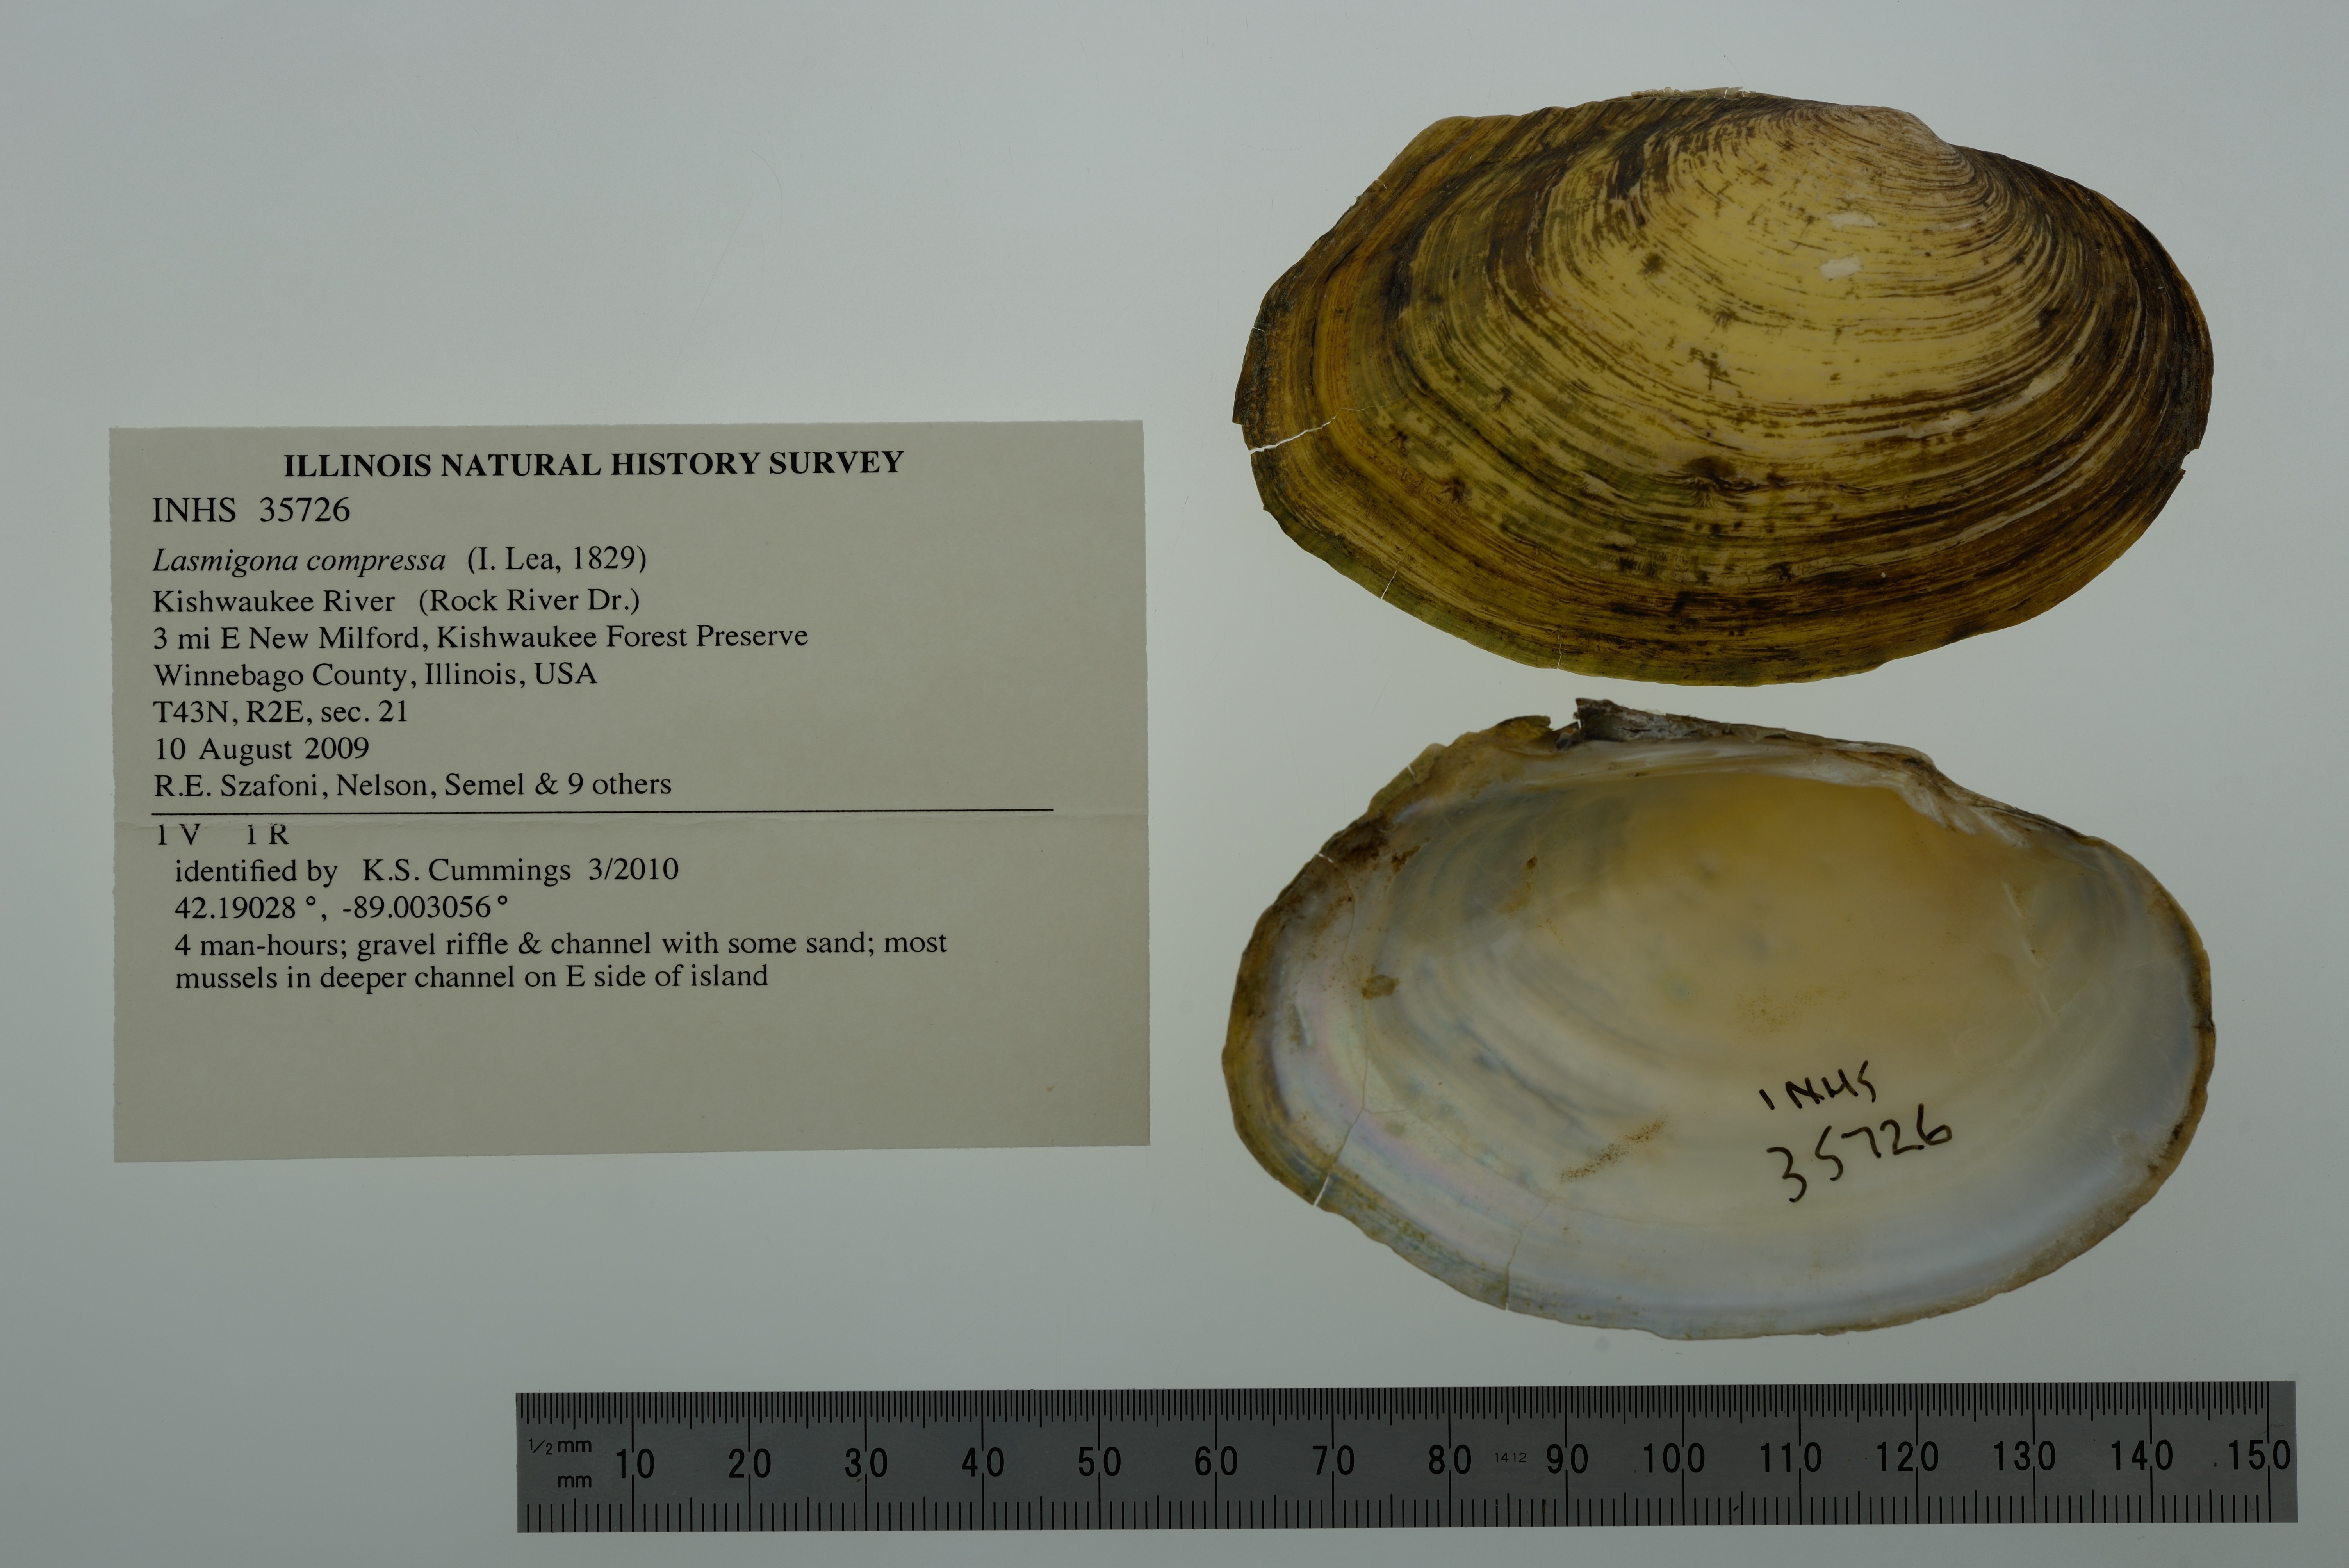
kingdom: Animalia
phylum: Mollusca
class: Bivalvia
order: Unionida
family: Unionidae
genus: Lasmigona
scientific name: Lasmigona compressa
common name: Creek heelsplitter
